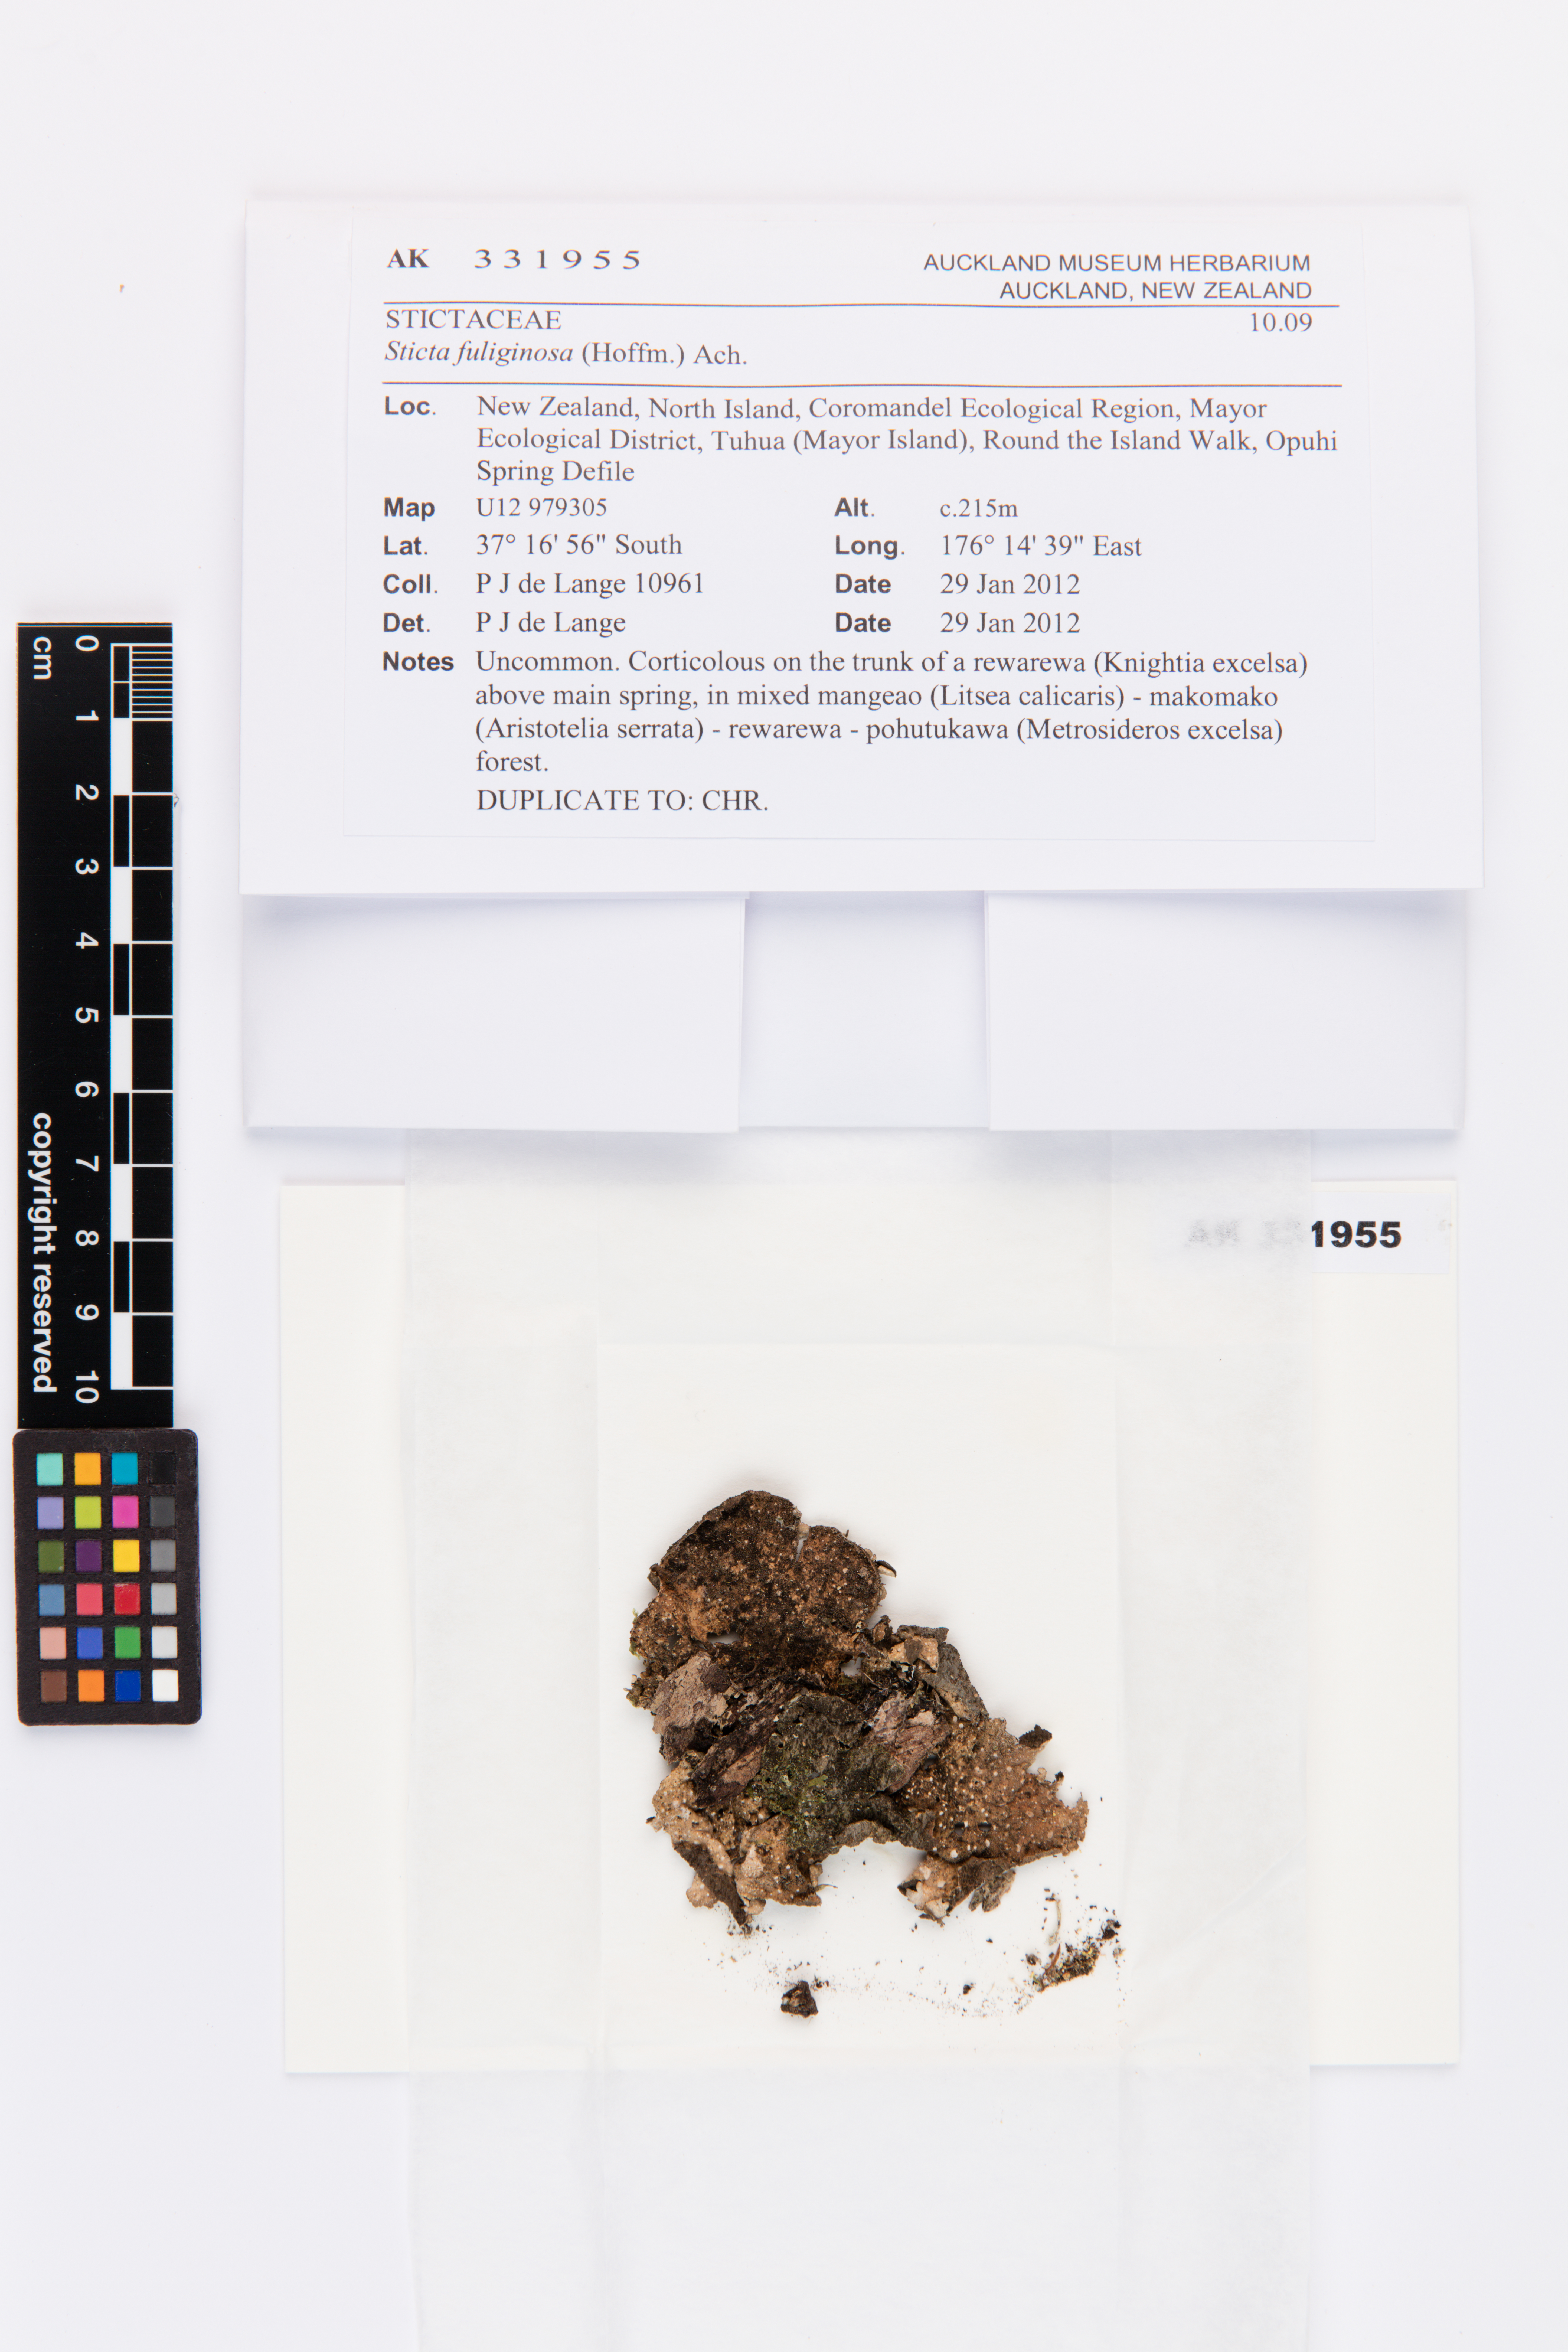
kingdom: Fungi
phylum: Ascomycota
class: Lecanoromycetes
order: Peltigerales
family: Lobariaceae
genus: Sticta
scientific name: Sticta fuliginosa
